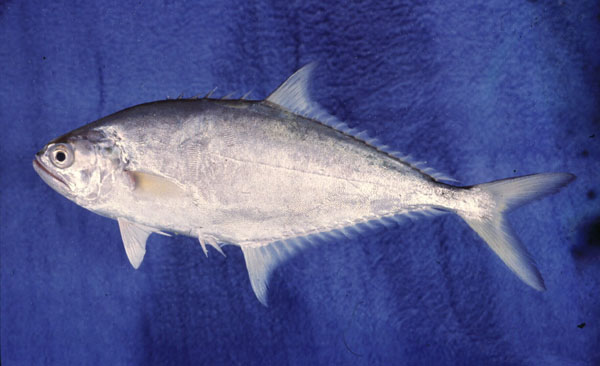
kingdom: Animalia
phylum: Chordata
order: Perciformes
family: Carangidae
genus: Scomberoides
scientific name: Scomberoides commersonnianus
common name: Talang queenfish
